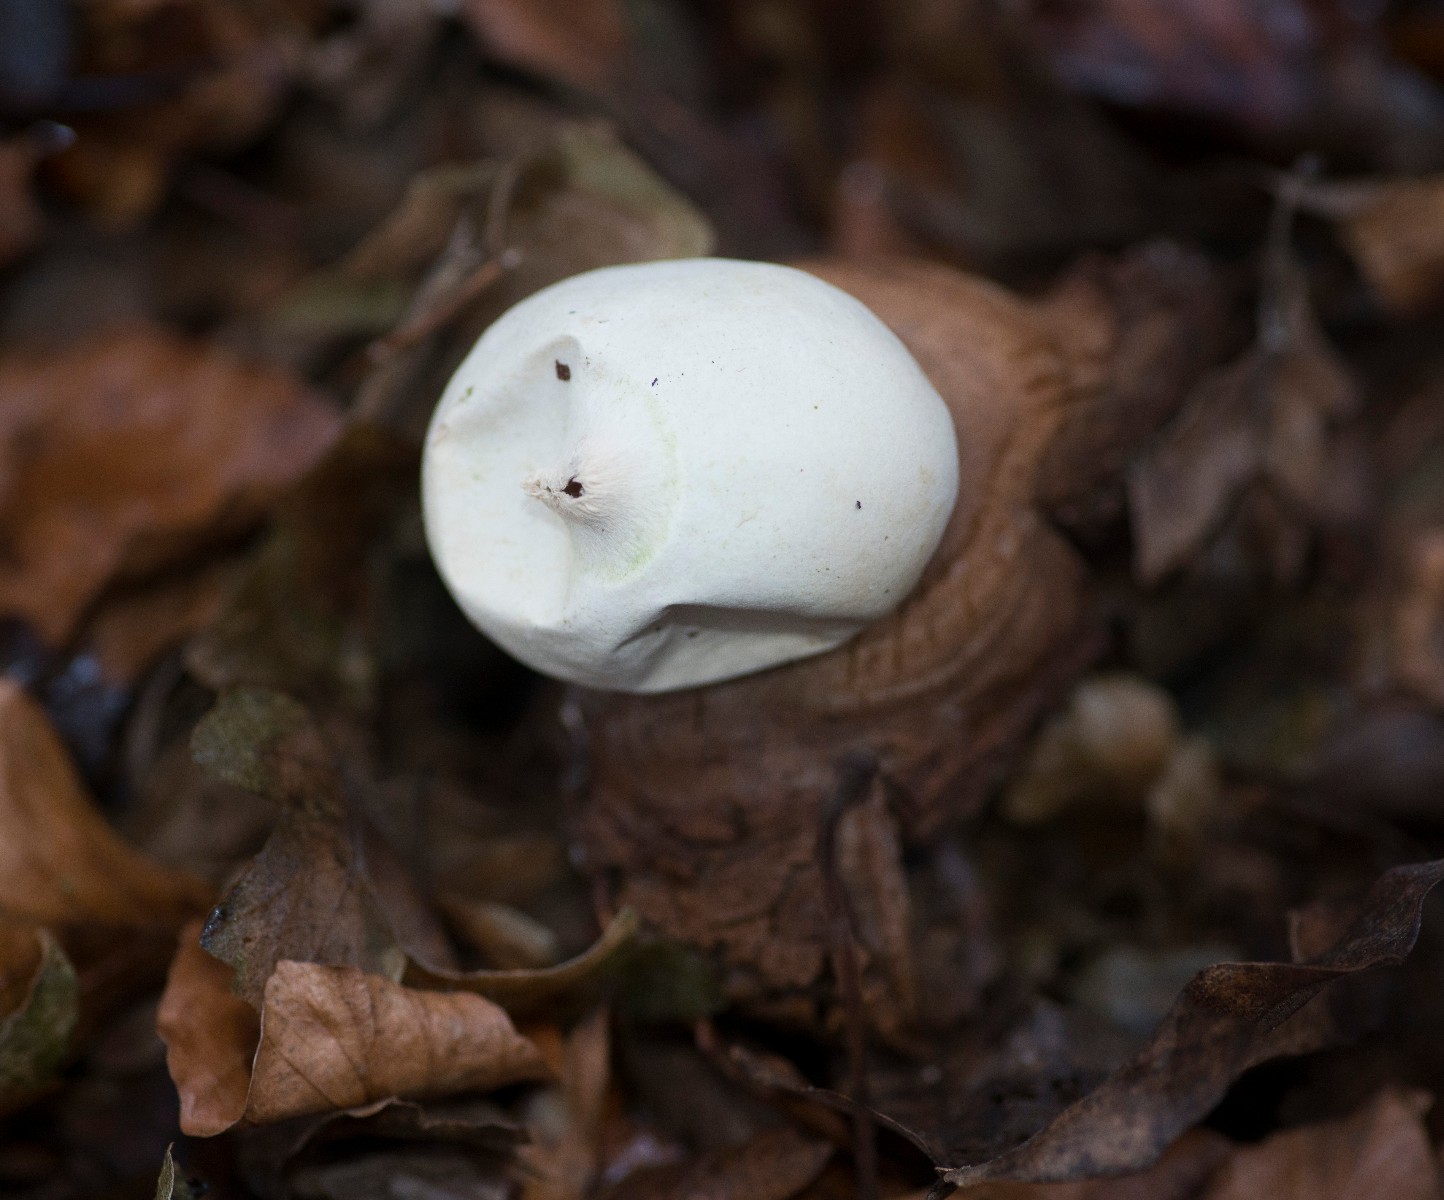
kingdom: Fungi
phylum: Basidiomycota
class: Agaricomycetes
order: Geastrales
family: Geastraceae
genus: Geastrum
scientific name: Geastrum michelianum
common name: kødet stjernebold
